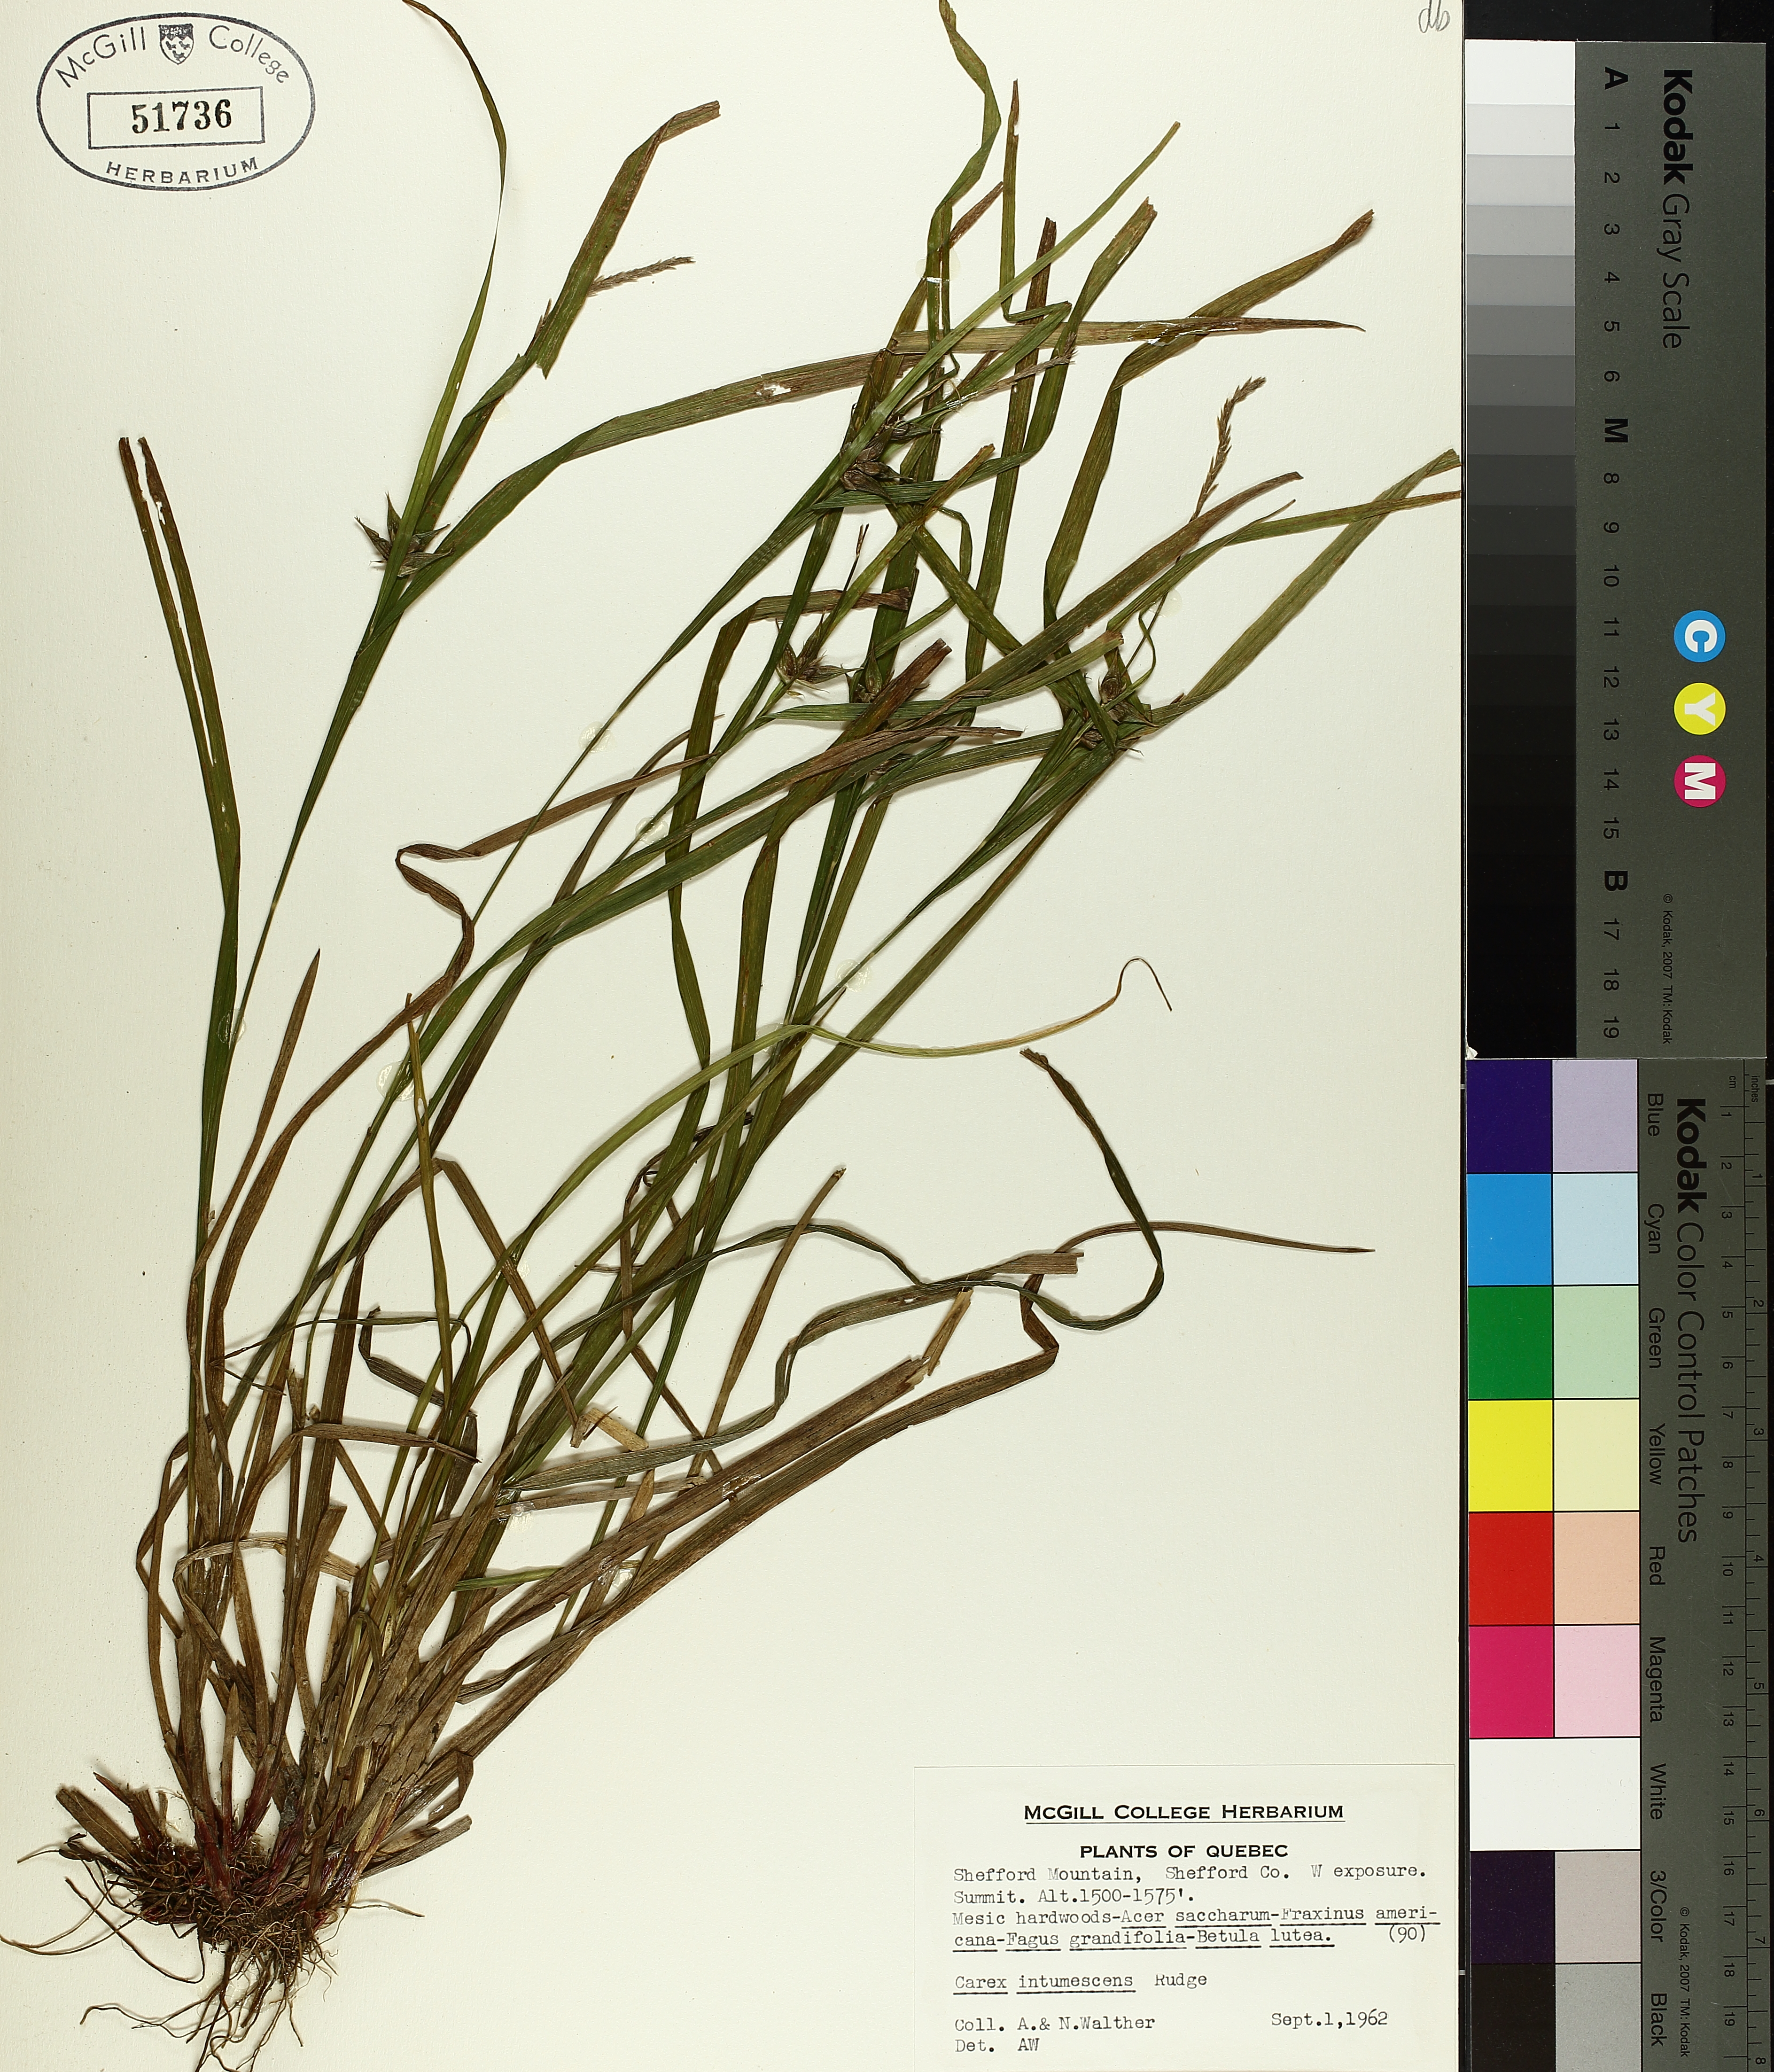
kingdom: Plantae
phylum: Tracheophyta
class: Liliopsida
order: Poales
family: Cyperaceae
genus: Carex
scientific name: Carex intumescens
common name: Greater bladder sedge
